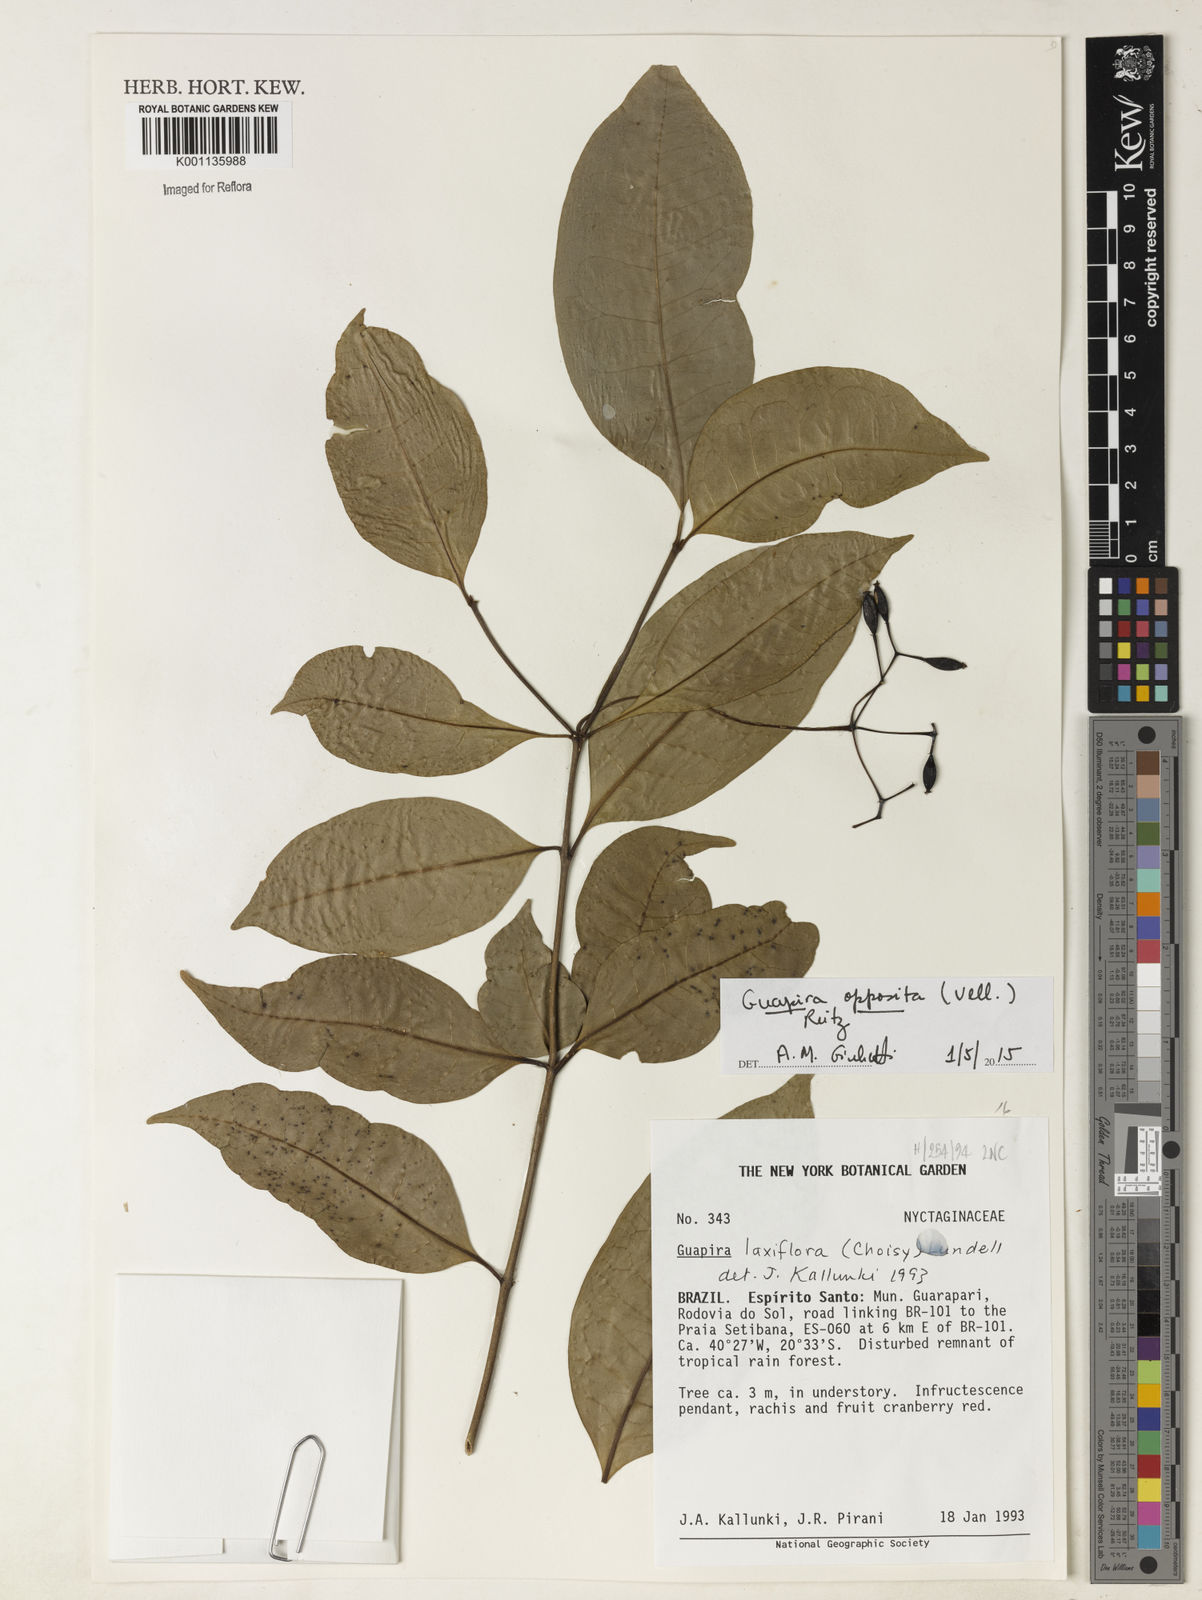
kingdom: Plantae
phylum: Tracheophyta
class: Magnoliopsida
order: Caryophyllales
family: Nyctaginaceae
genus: Guapira
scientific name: Guapira opposita
